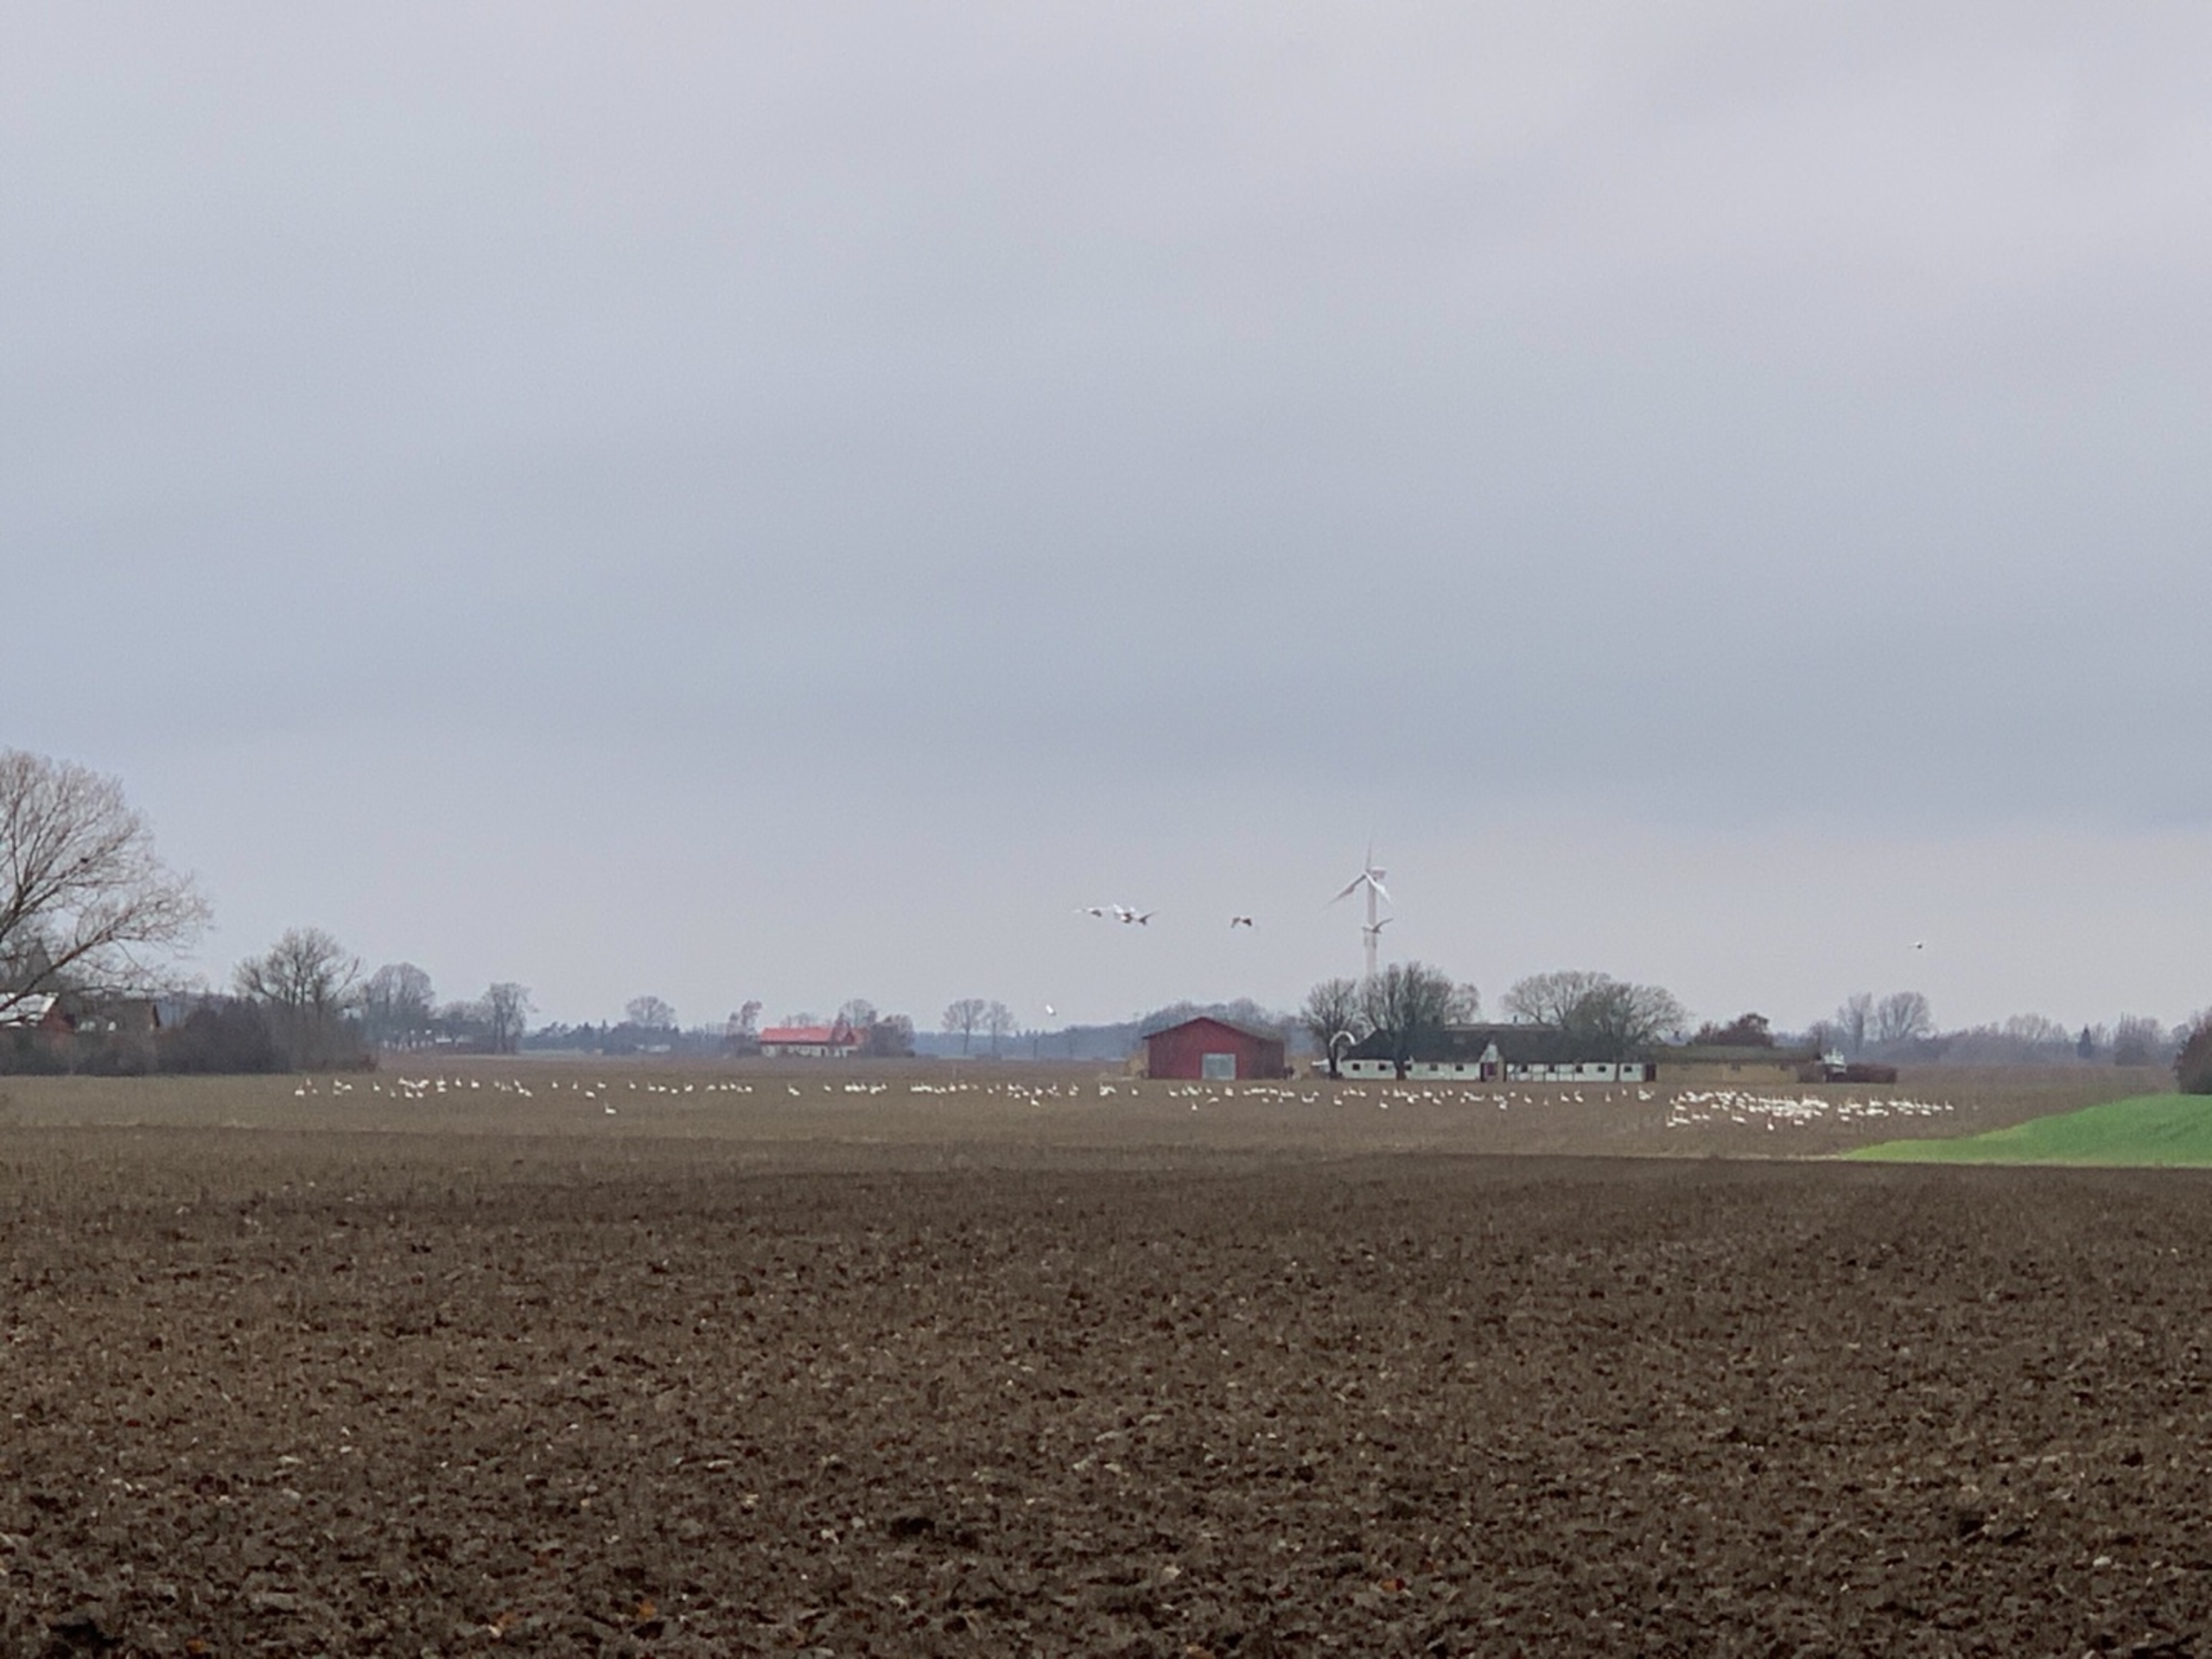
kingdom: Animalia
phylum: Chordata
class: Aves
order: Anseriformes
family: Anatidae
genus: Cygnus
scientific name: Cygnus cygnus
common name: Sangsvane
